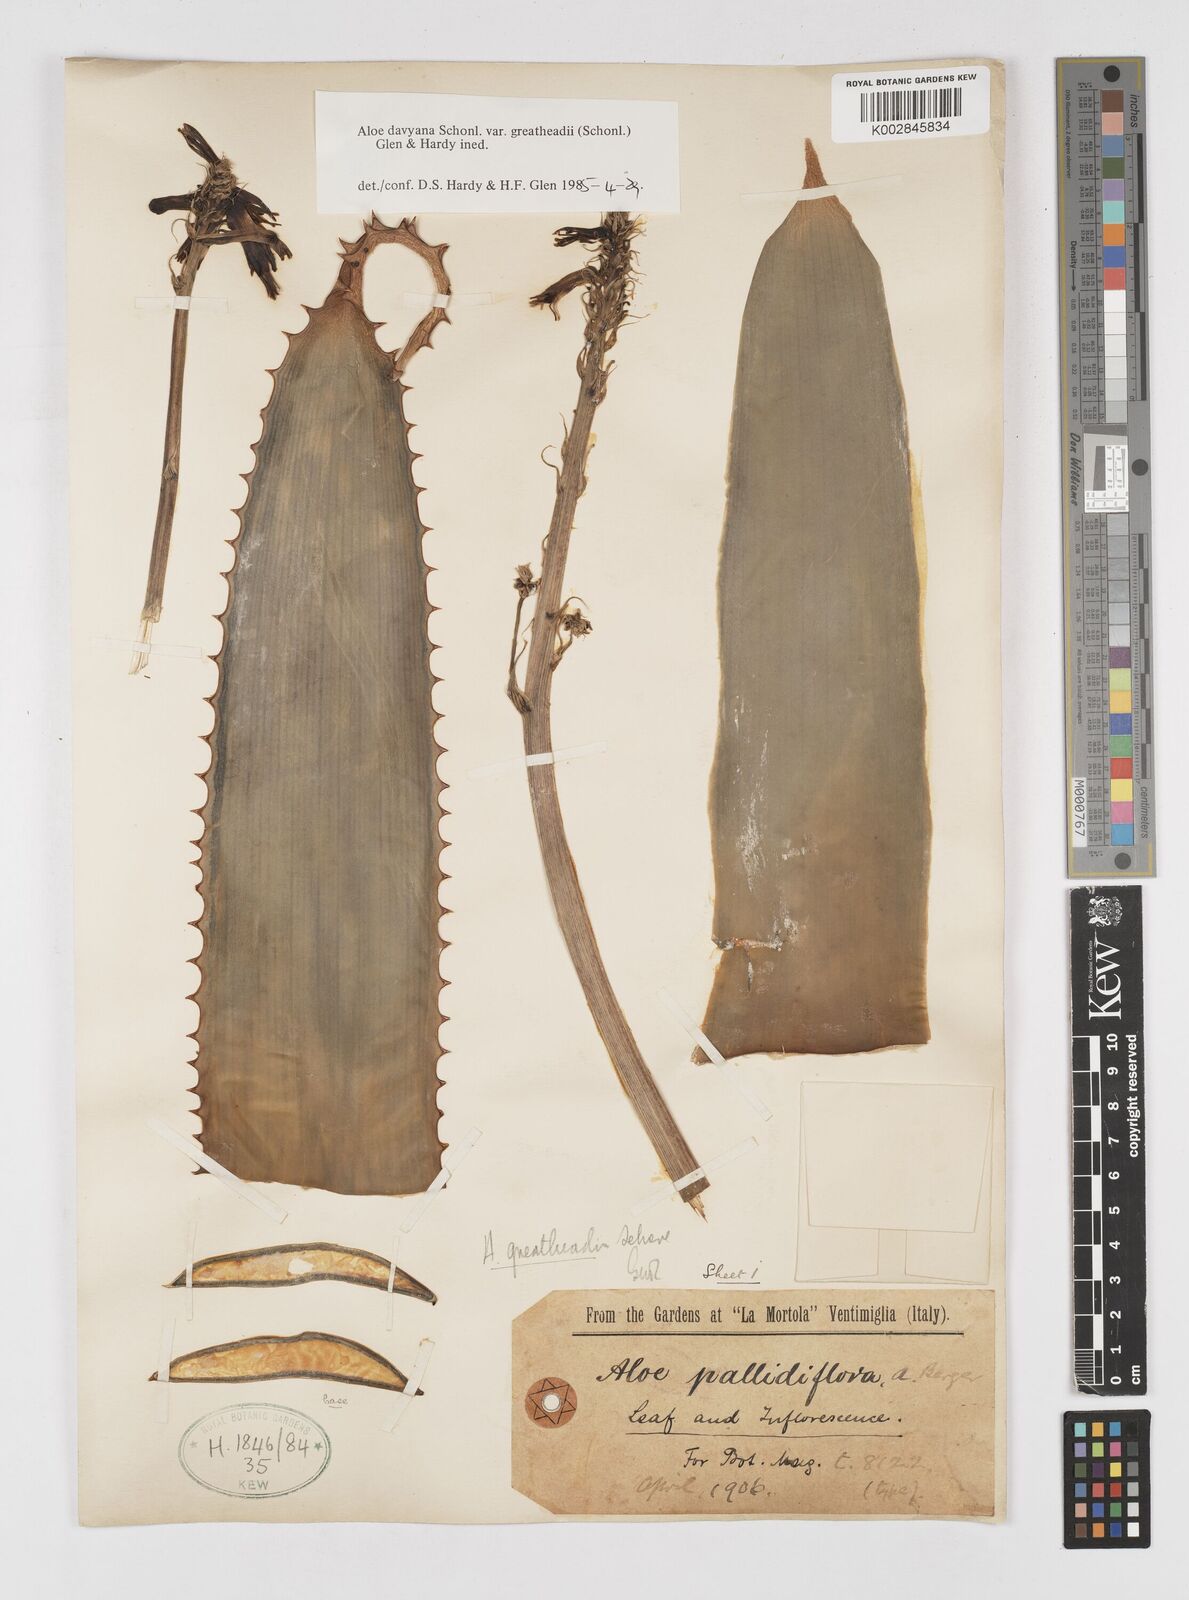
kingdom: Plantae
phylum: Tracheophyta
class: Liliopsida
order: Asparagales
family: Asphodelaceae
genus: Aloe
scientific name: Aloe davyana
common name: Spotted aloe
